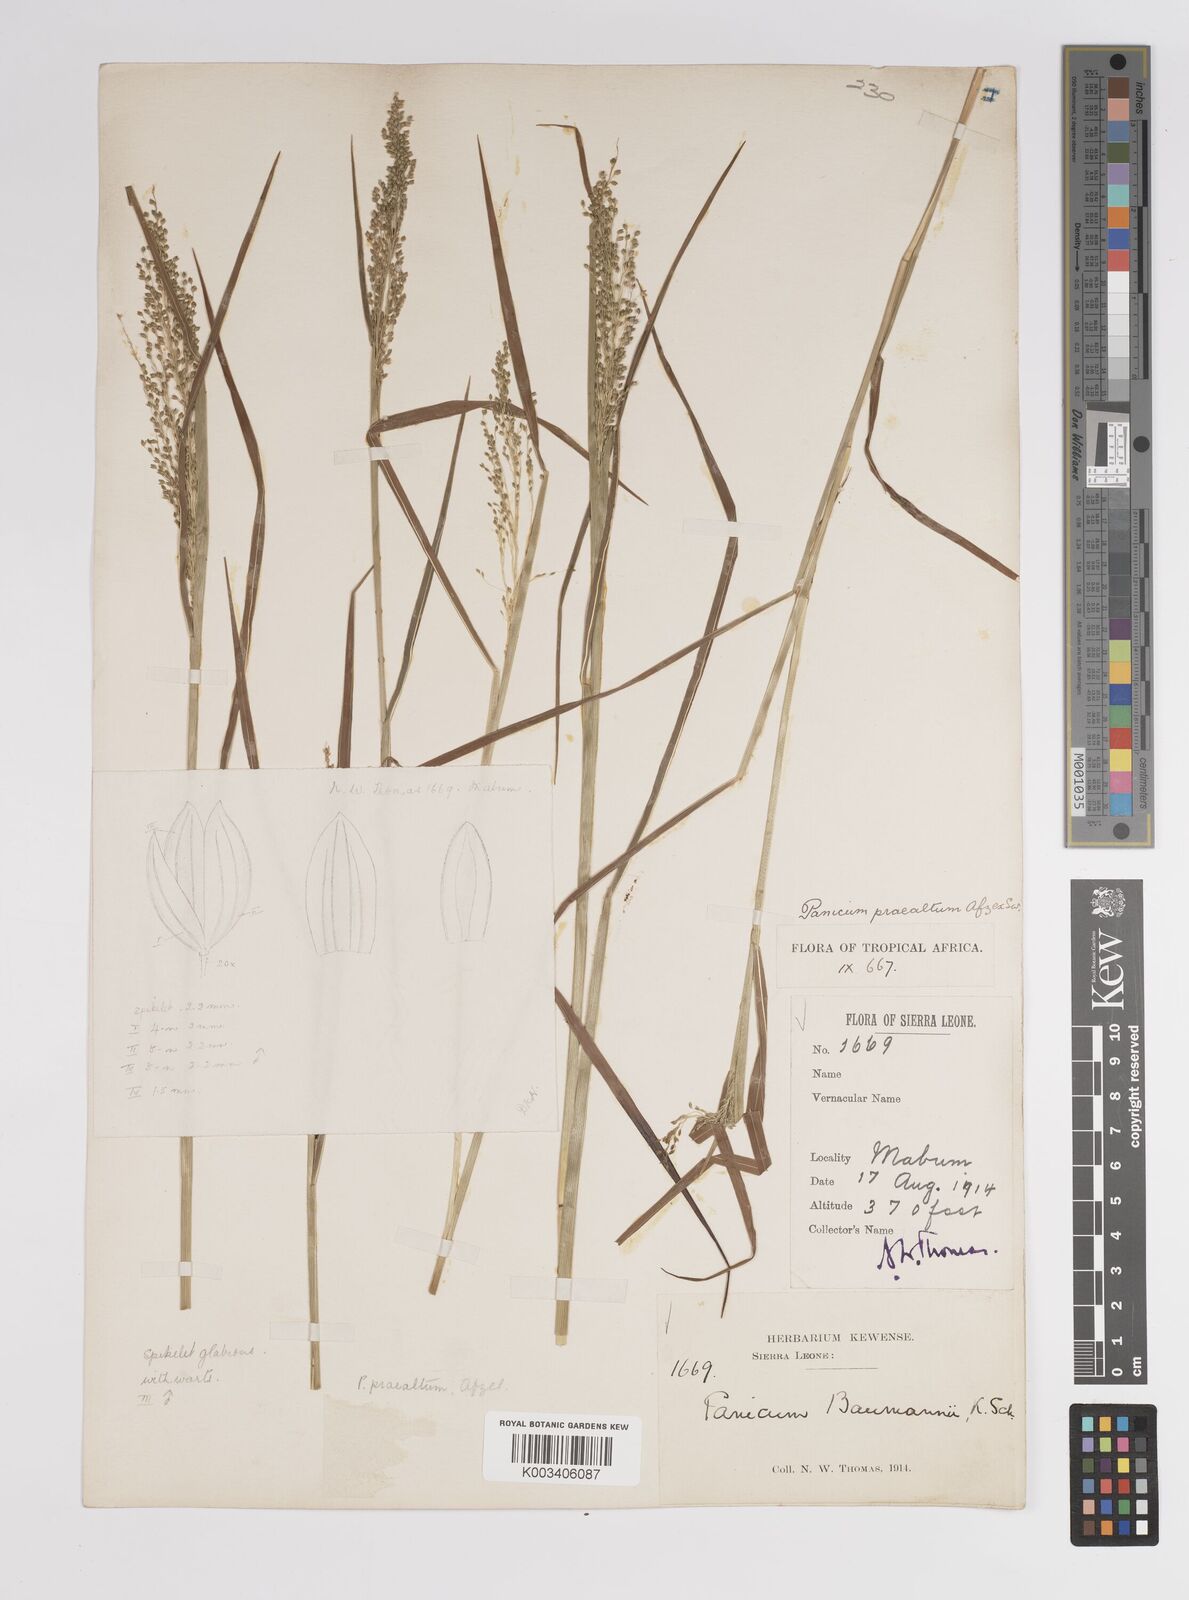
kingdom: Plantae
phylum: Tracheophyta
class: Liliopsida
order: Poales
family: Poaceae
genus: Trichanthecium
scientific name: Trichanthecium praealtum
